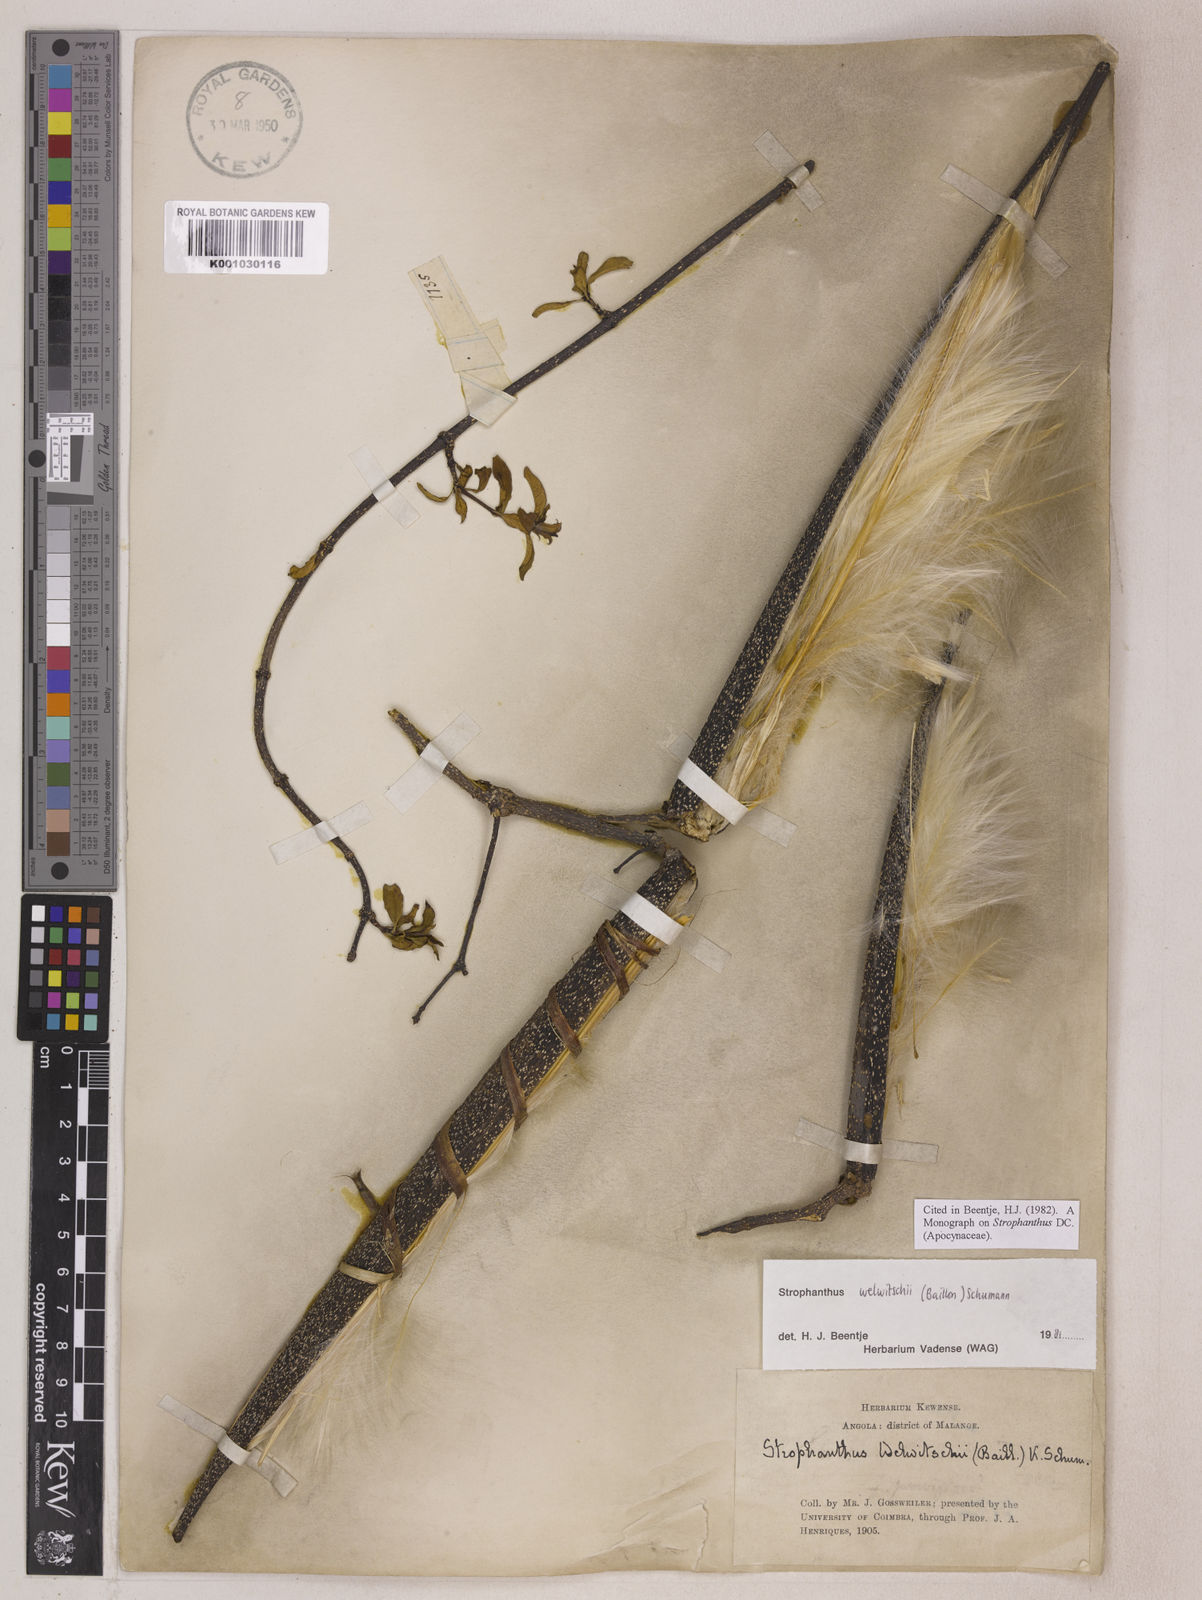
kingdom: Plantae
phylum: Tracheophyta
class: Magnoliopsida
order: Gentianales
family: Apocynaceae
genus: Strophanthus
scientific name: Strophanthus welwitschii
